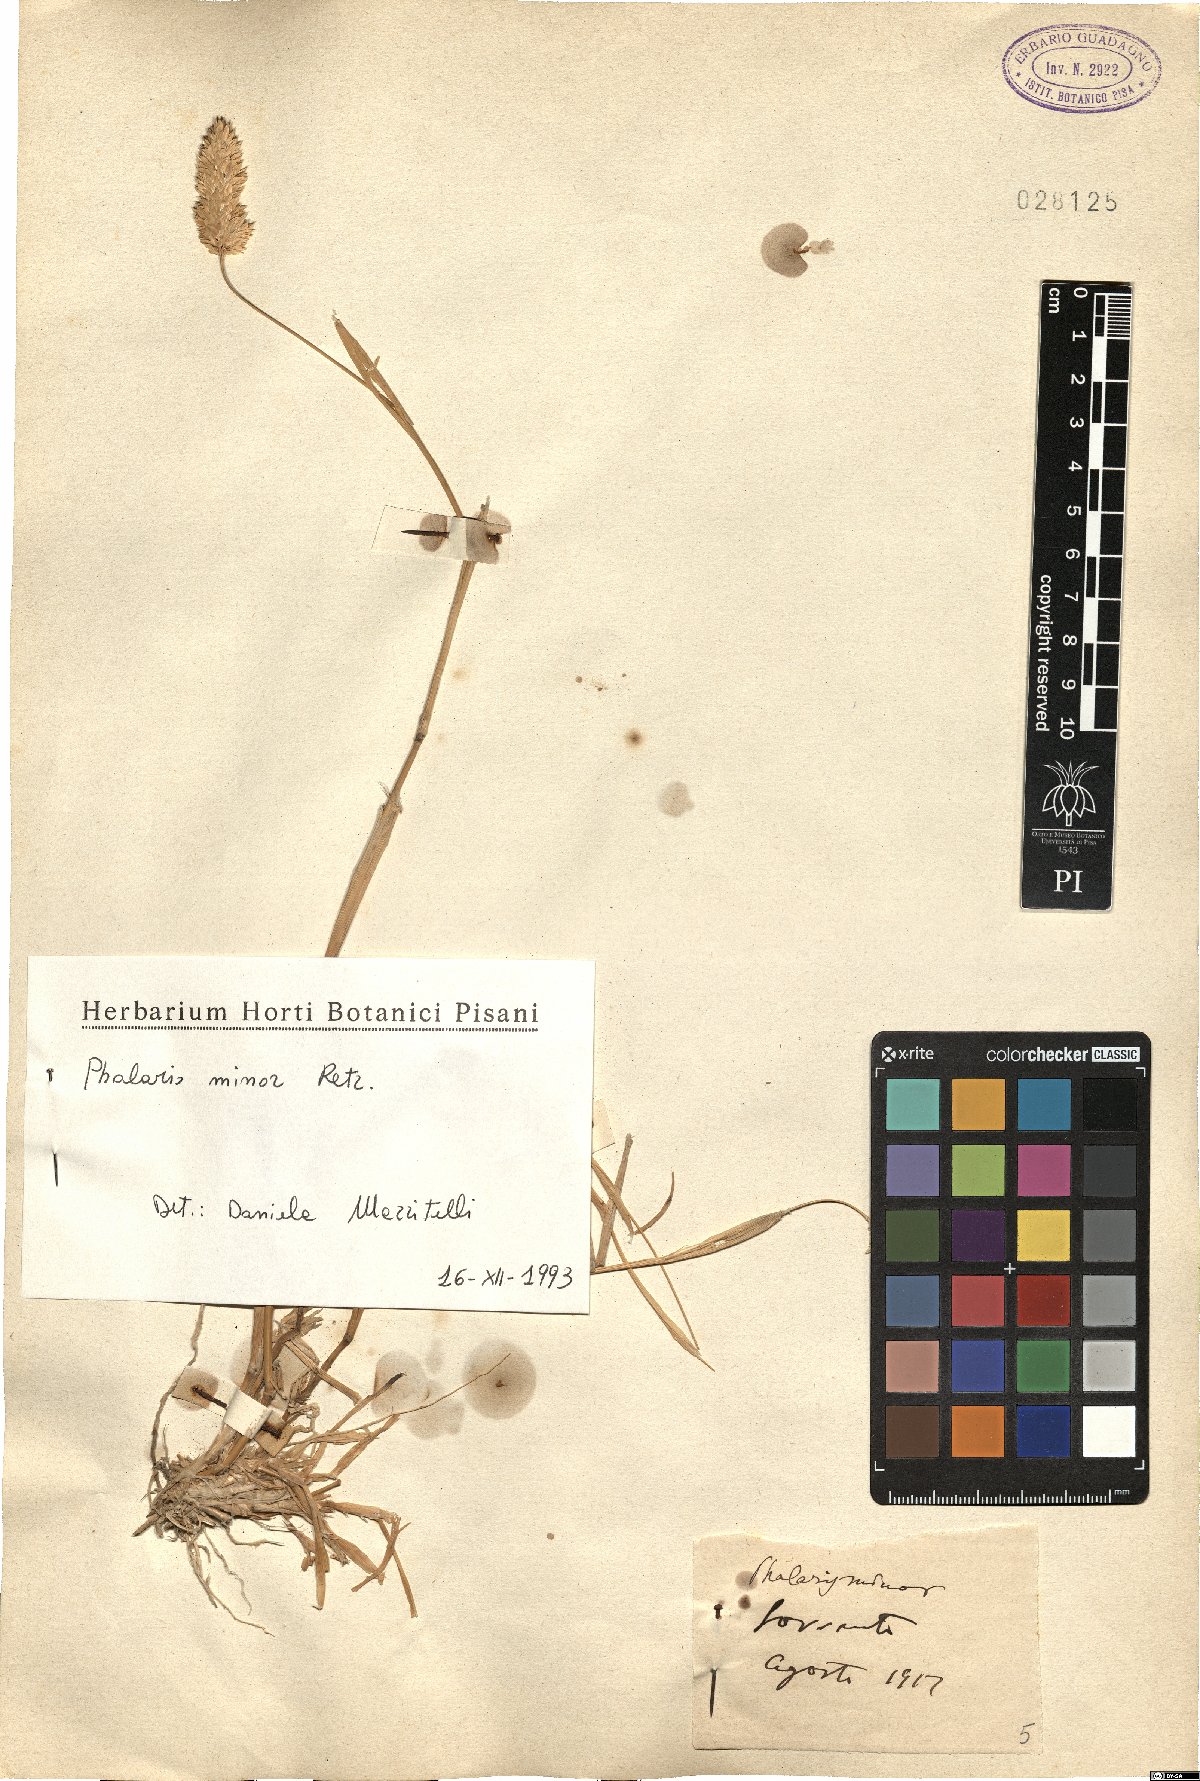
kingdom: Plantae
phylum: Tracheophyta
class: Liliopsida
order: Poales
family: Poaceae
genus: Phalaris
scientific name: Phalaris minor
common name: Littleseed canarygrass
